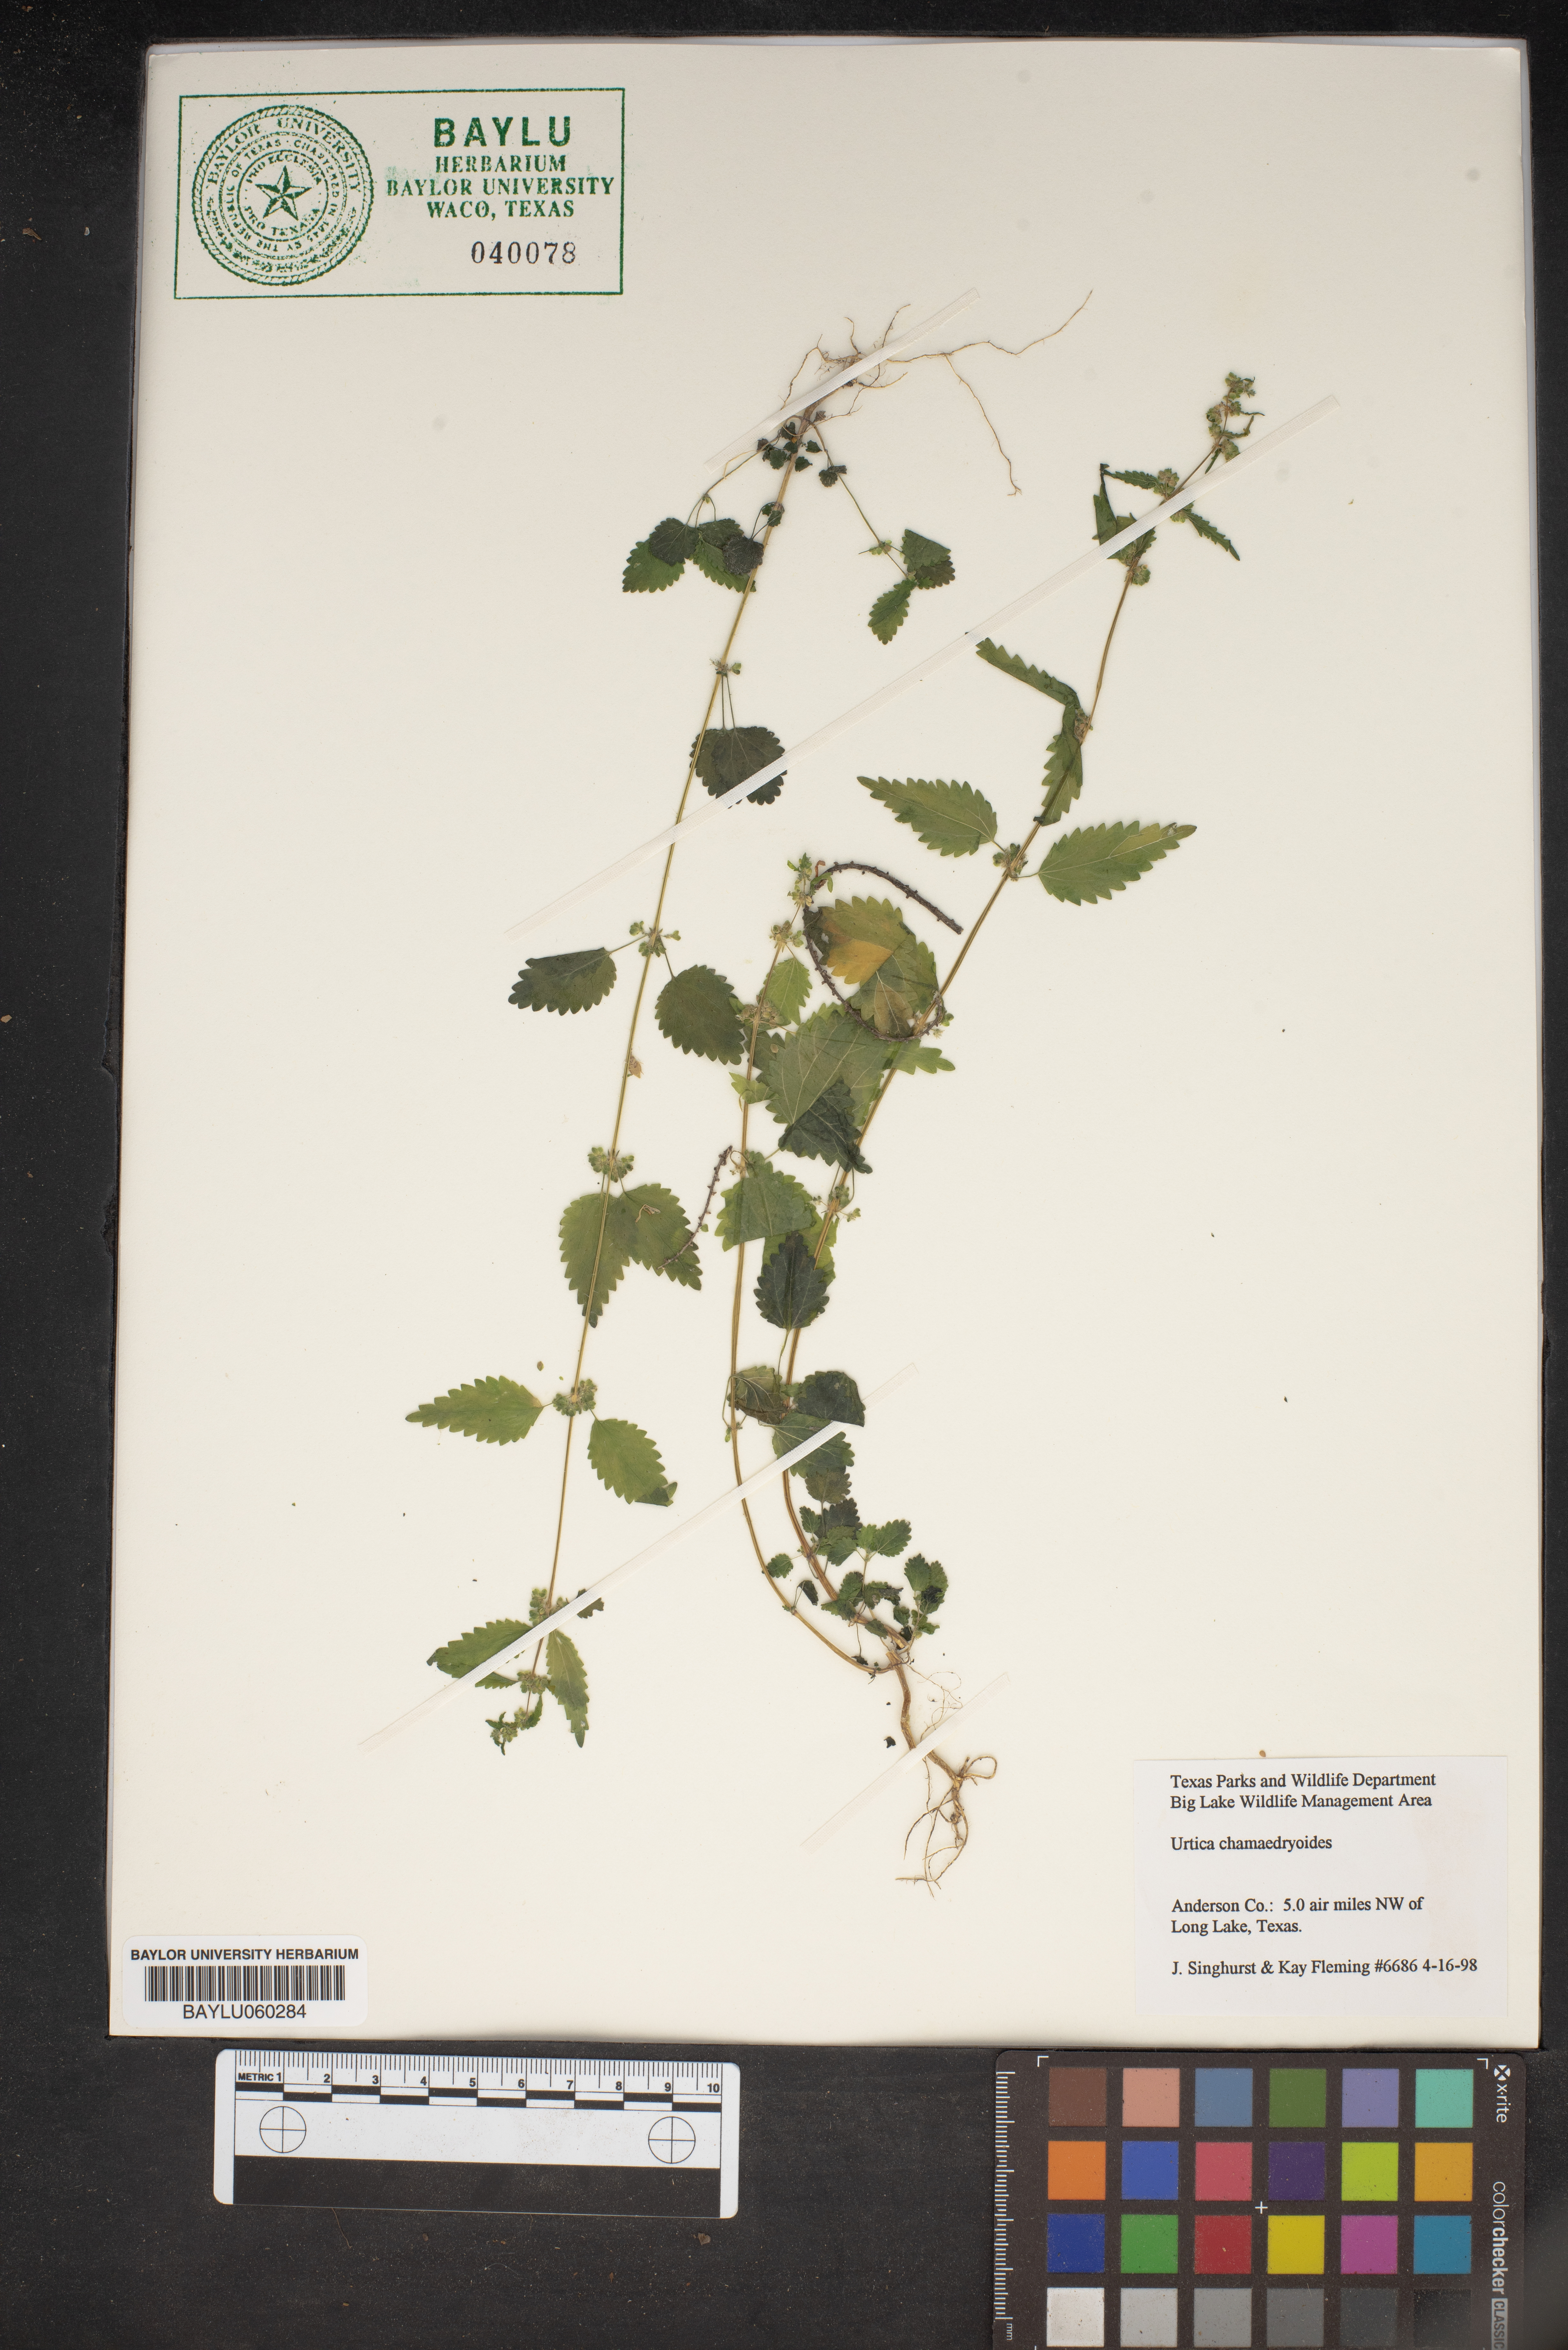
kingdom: Plantae
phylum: Tracheophyta
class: Magnoliopsida
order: Rosales
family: Urticaceae
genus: Urtica
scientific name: Urtica chamaedryoides
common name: Heart-leaf nettle
